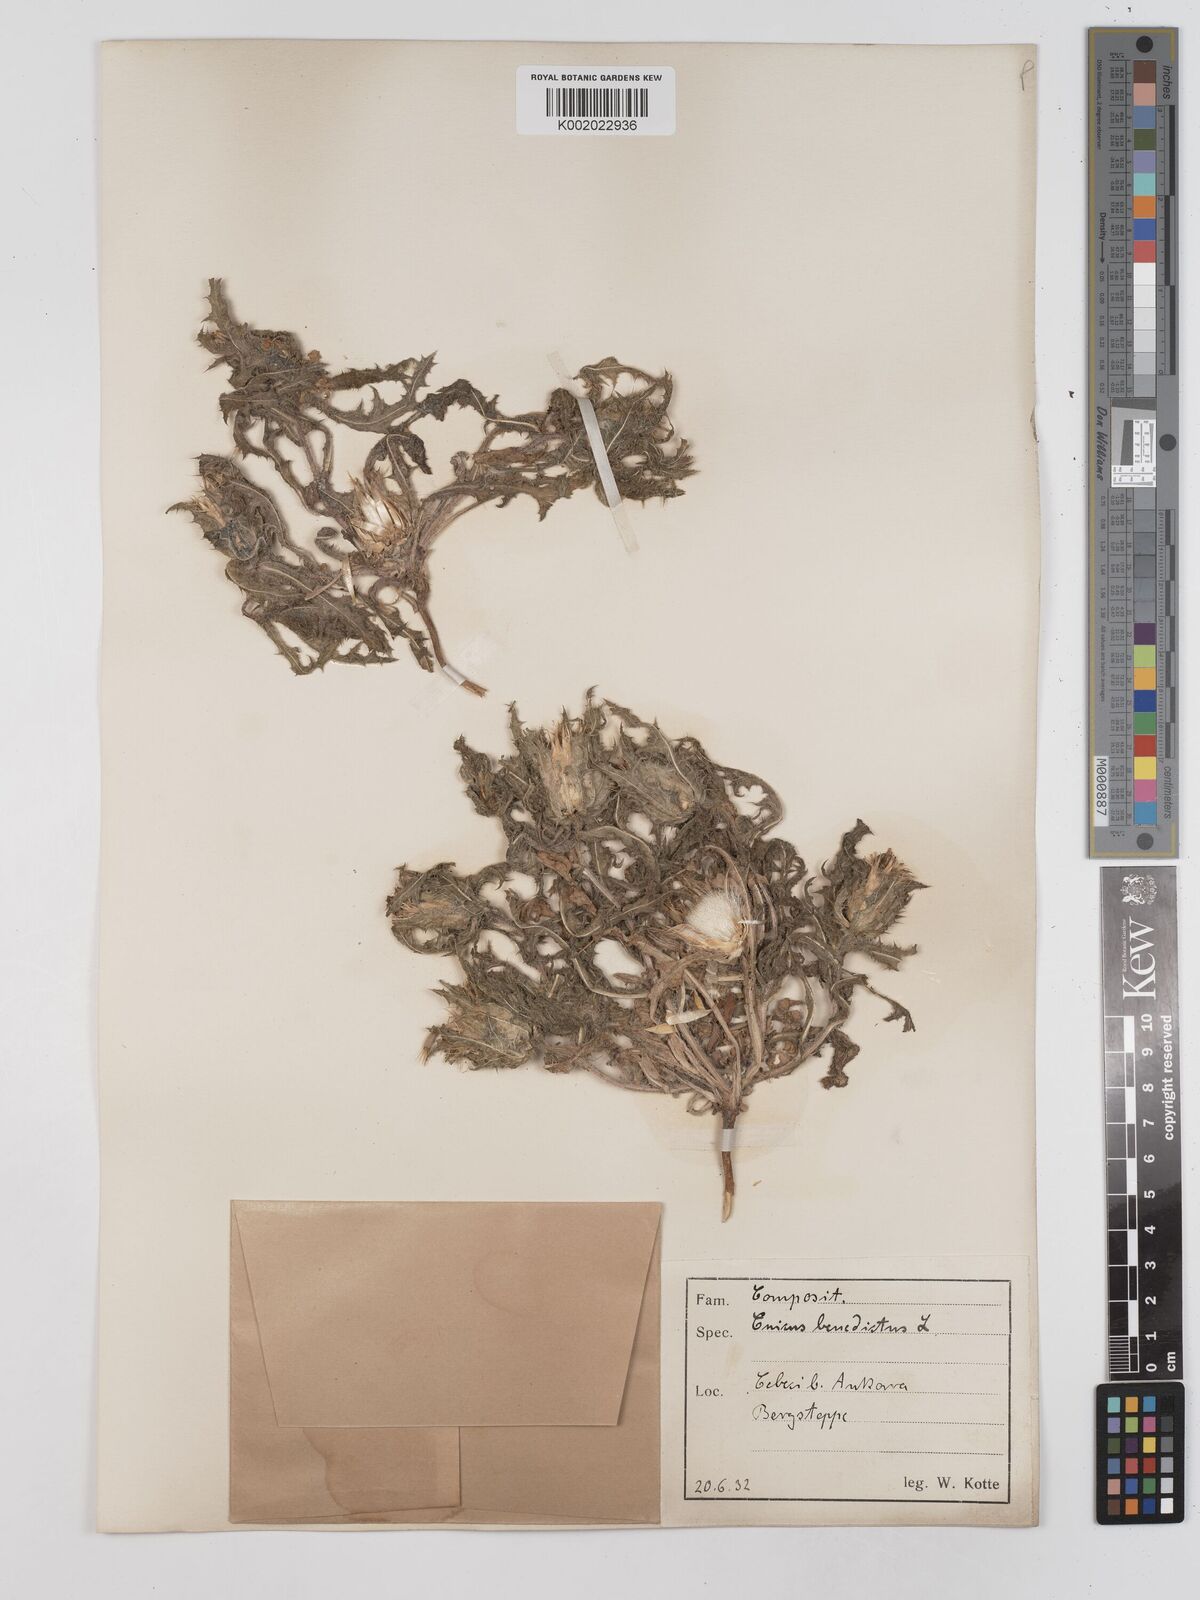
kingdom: Plantae
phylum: Tracheophyta
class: Magnoliopsida
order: Asterales
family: Asteraceae
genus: Centaurea
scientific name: Centaurea benedicta
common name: Blessed thistle
